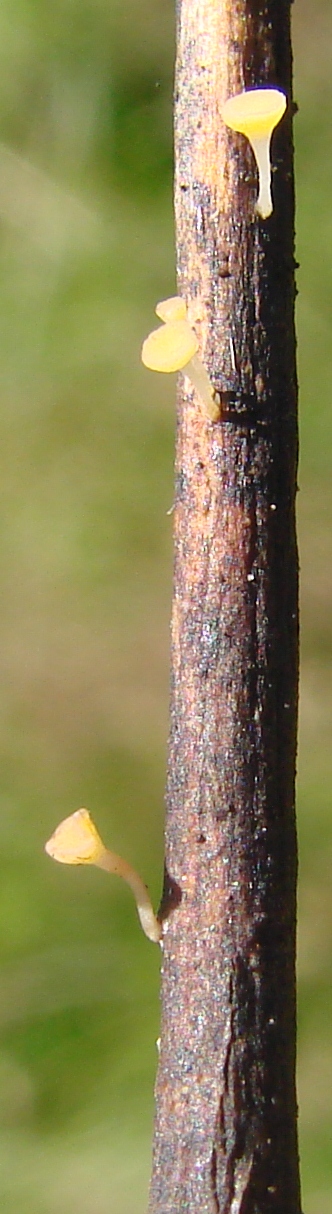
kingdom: Fungi
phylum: Ascomycota
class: Leotiomycetes
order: Helotiales
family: Helotiaceae
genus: Hymenoscyphus
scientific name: Hymenoscyphus menthae
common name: eng-stilkskive
